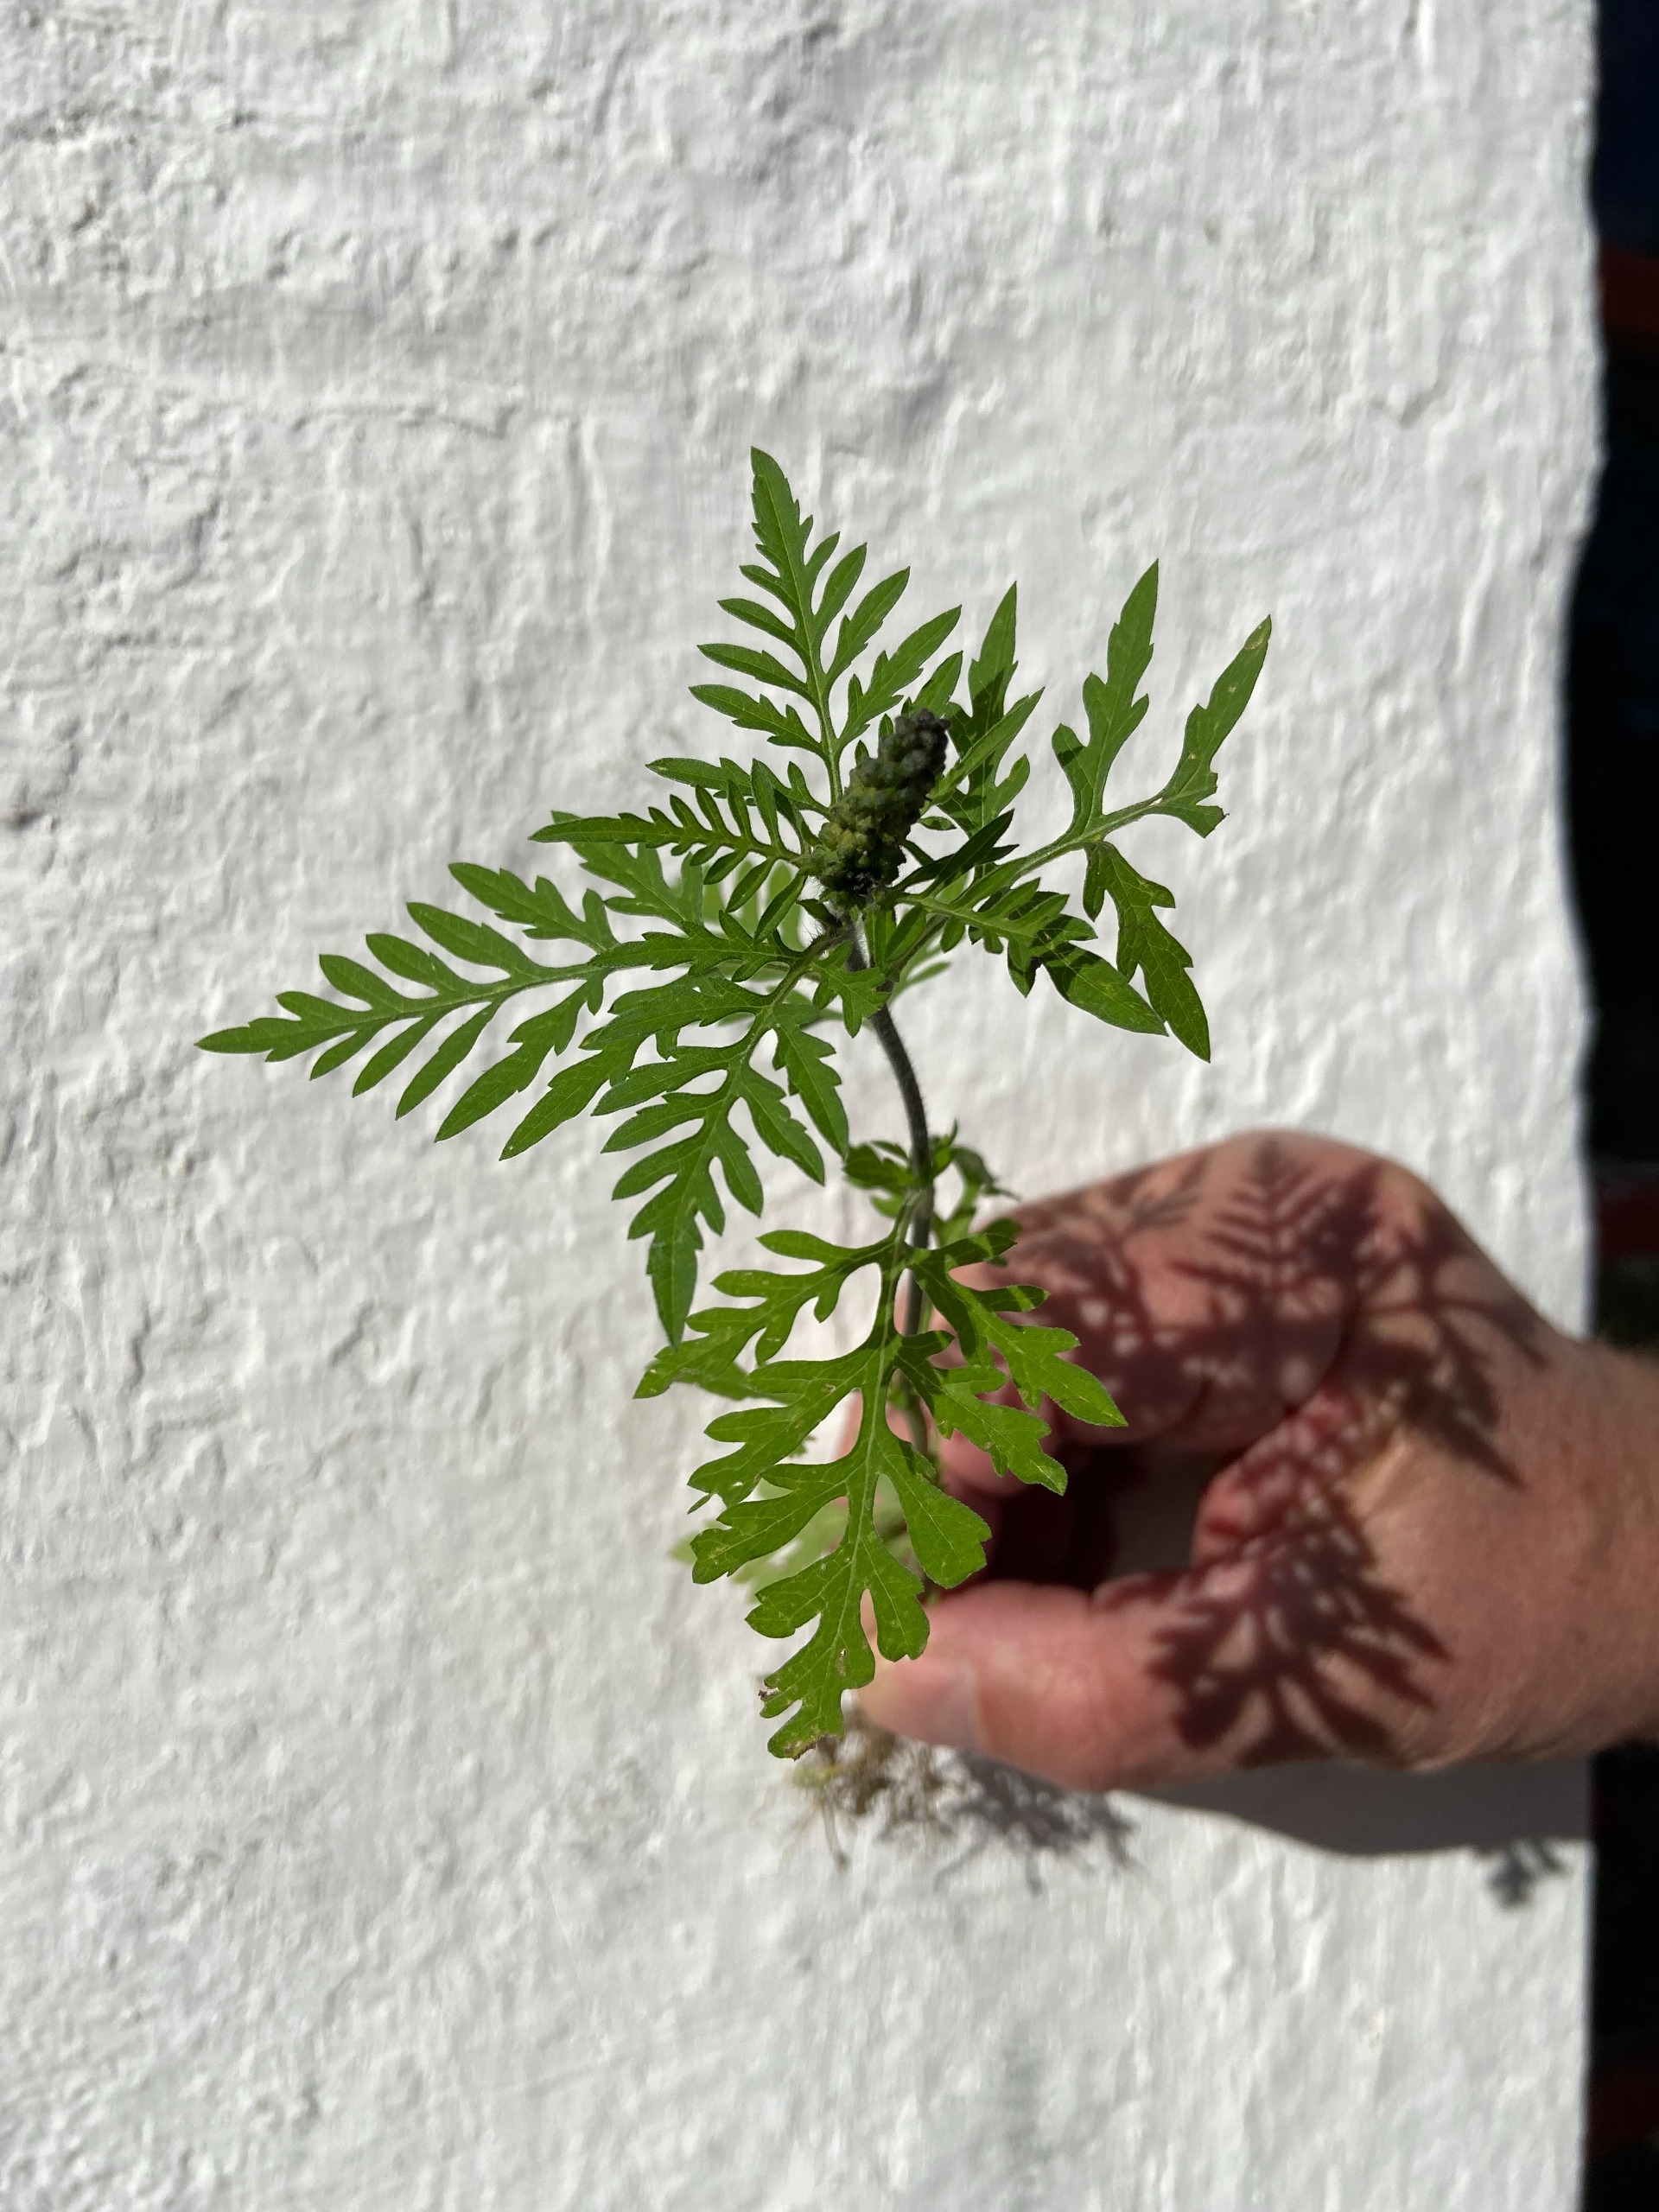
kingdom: Plantae
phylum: Tracheophyta
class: Magnoliopsida
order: Asterales
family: Asteraceae
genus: Ambrosia
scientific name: Ambrosia artemisiifolia
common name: Bynke-ambrosie
